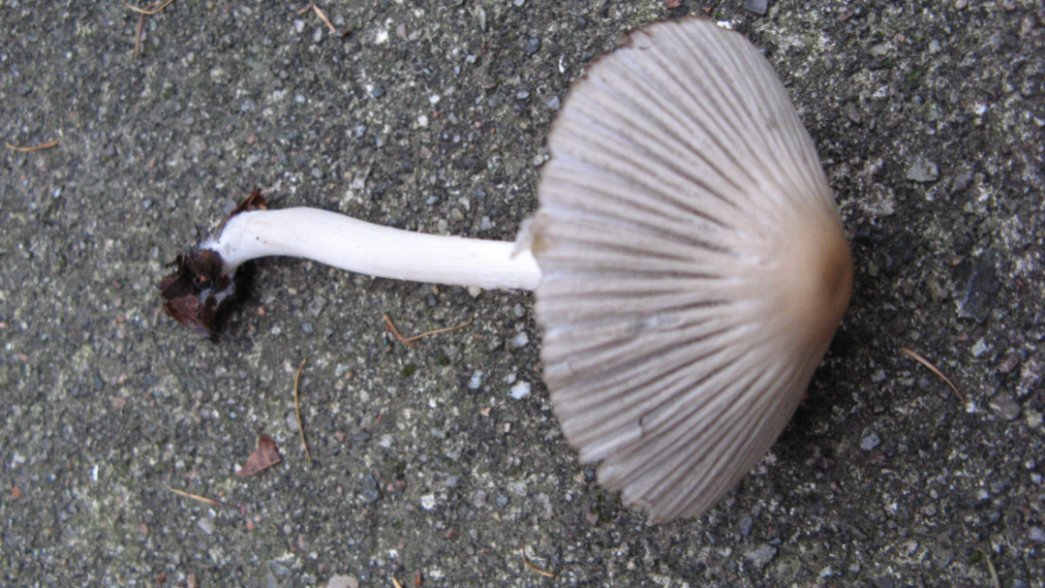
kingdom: Fungi
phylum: Basidiomycota
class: Agaricomycetes
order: Agaricales
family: Psathyrellaceae
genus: Tulosesus
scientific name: Tulosesus impatiens
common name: furet blækhat
